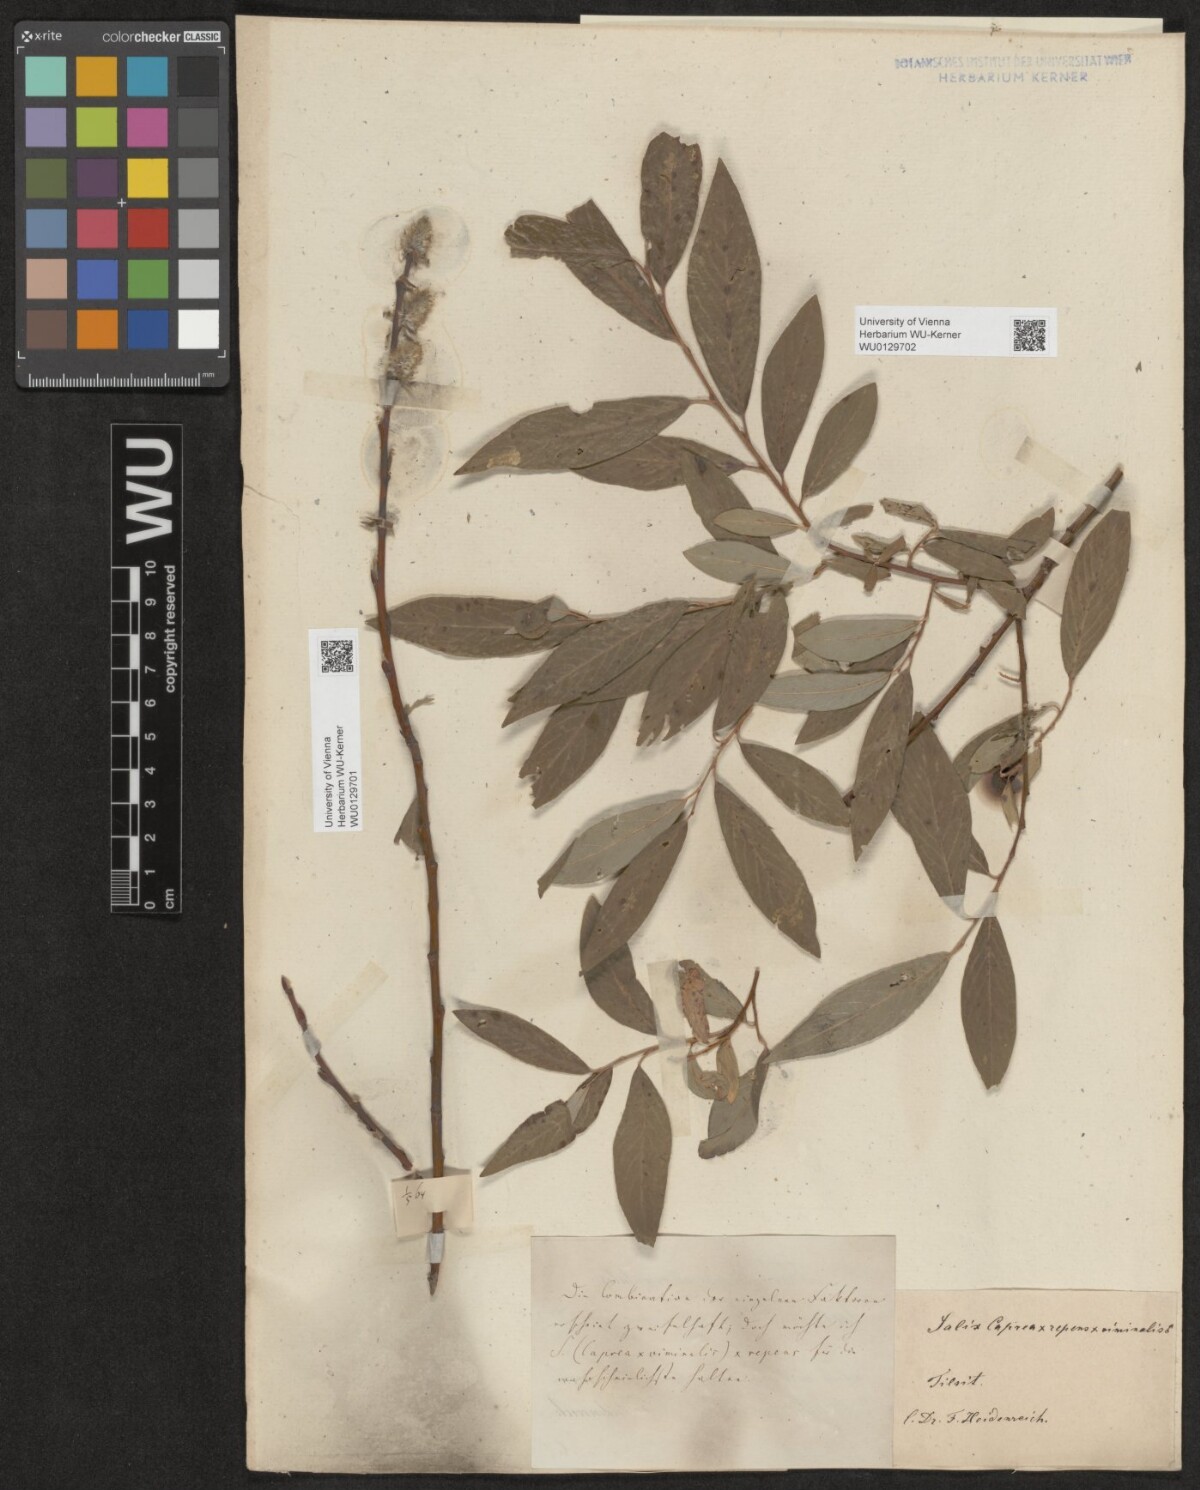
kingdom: Plantae
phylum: Tracheophyta
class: Magnoliopsida
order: Malpighiales
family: Salicaceae
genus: Salix
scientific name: Salix
